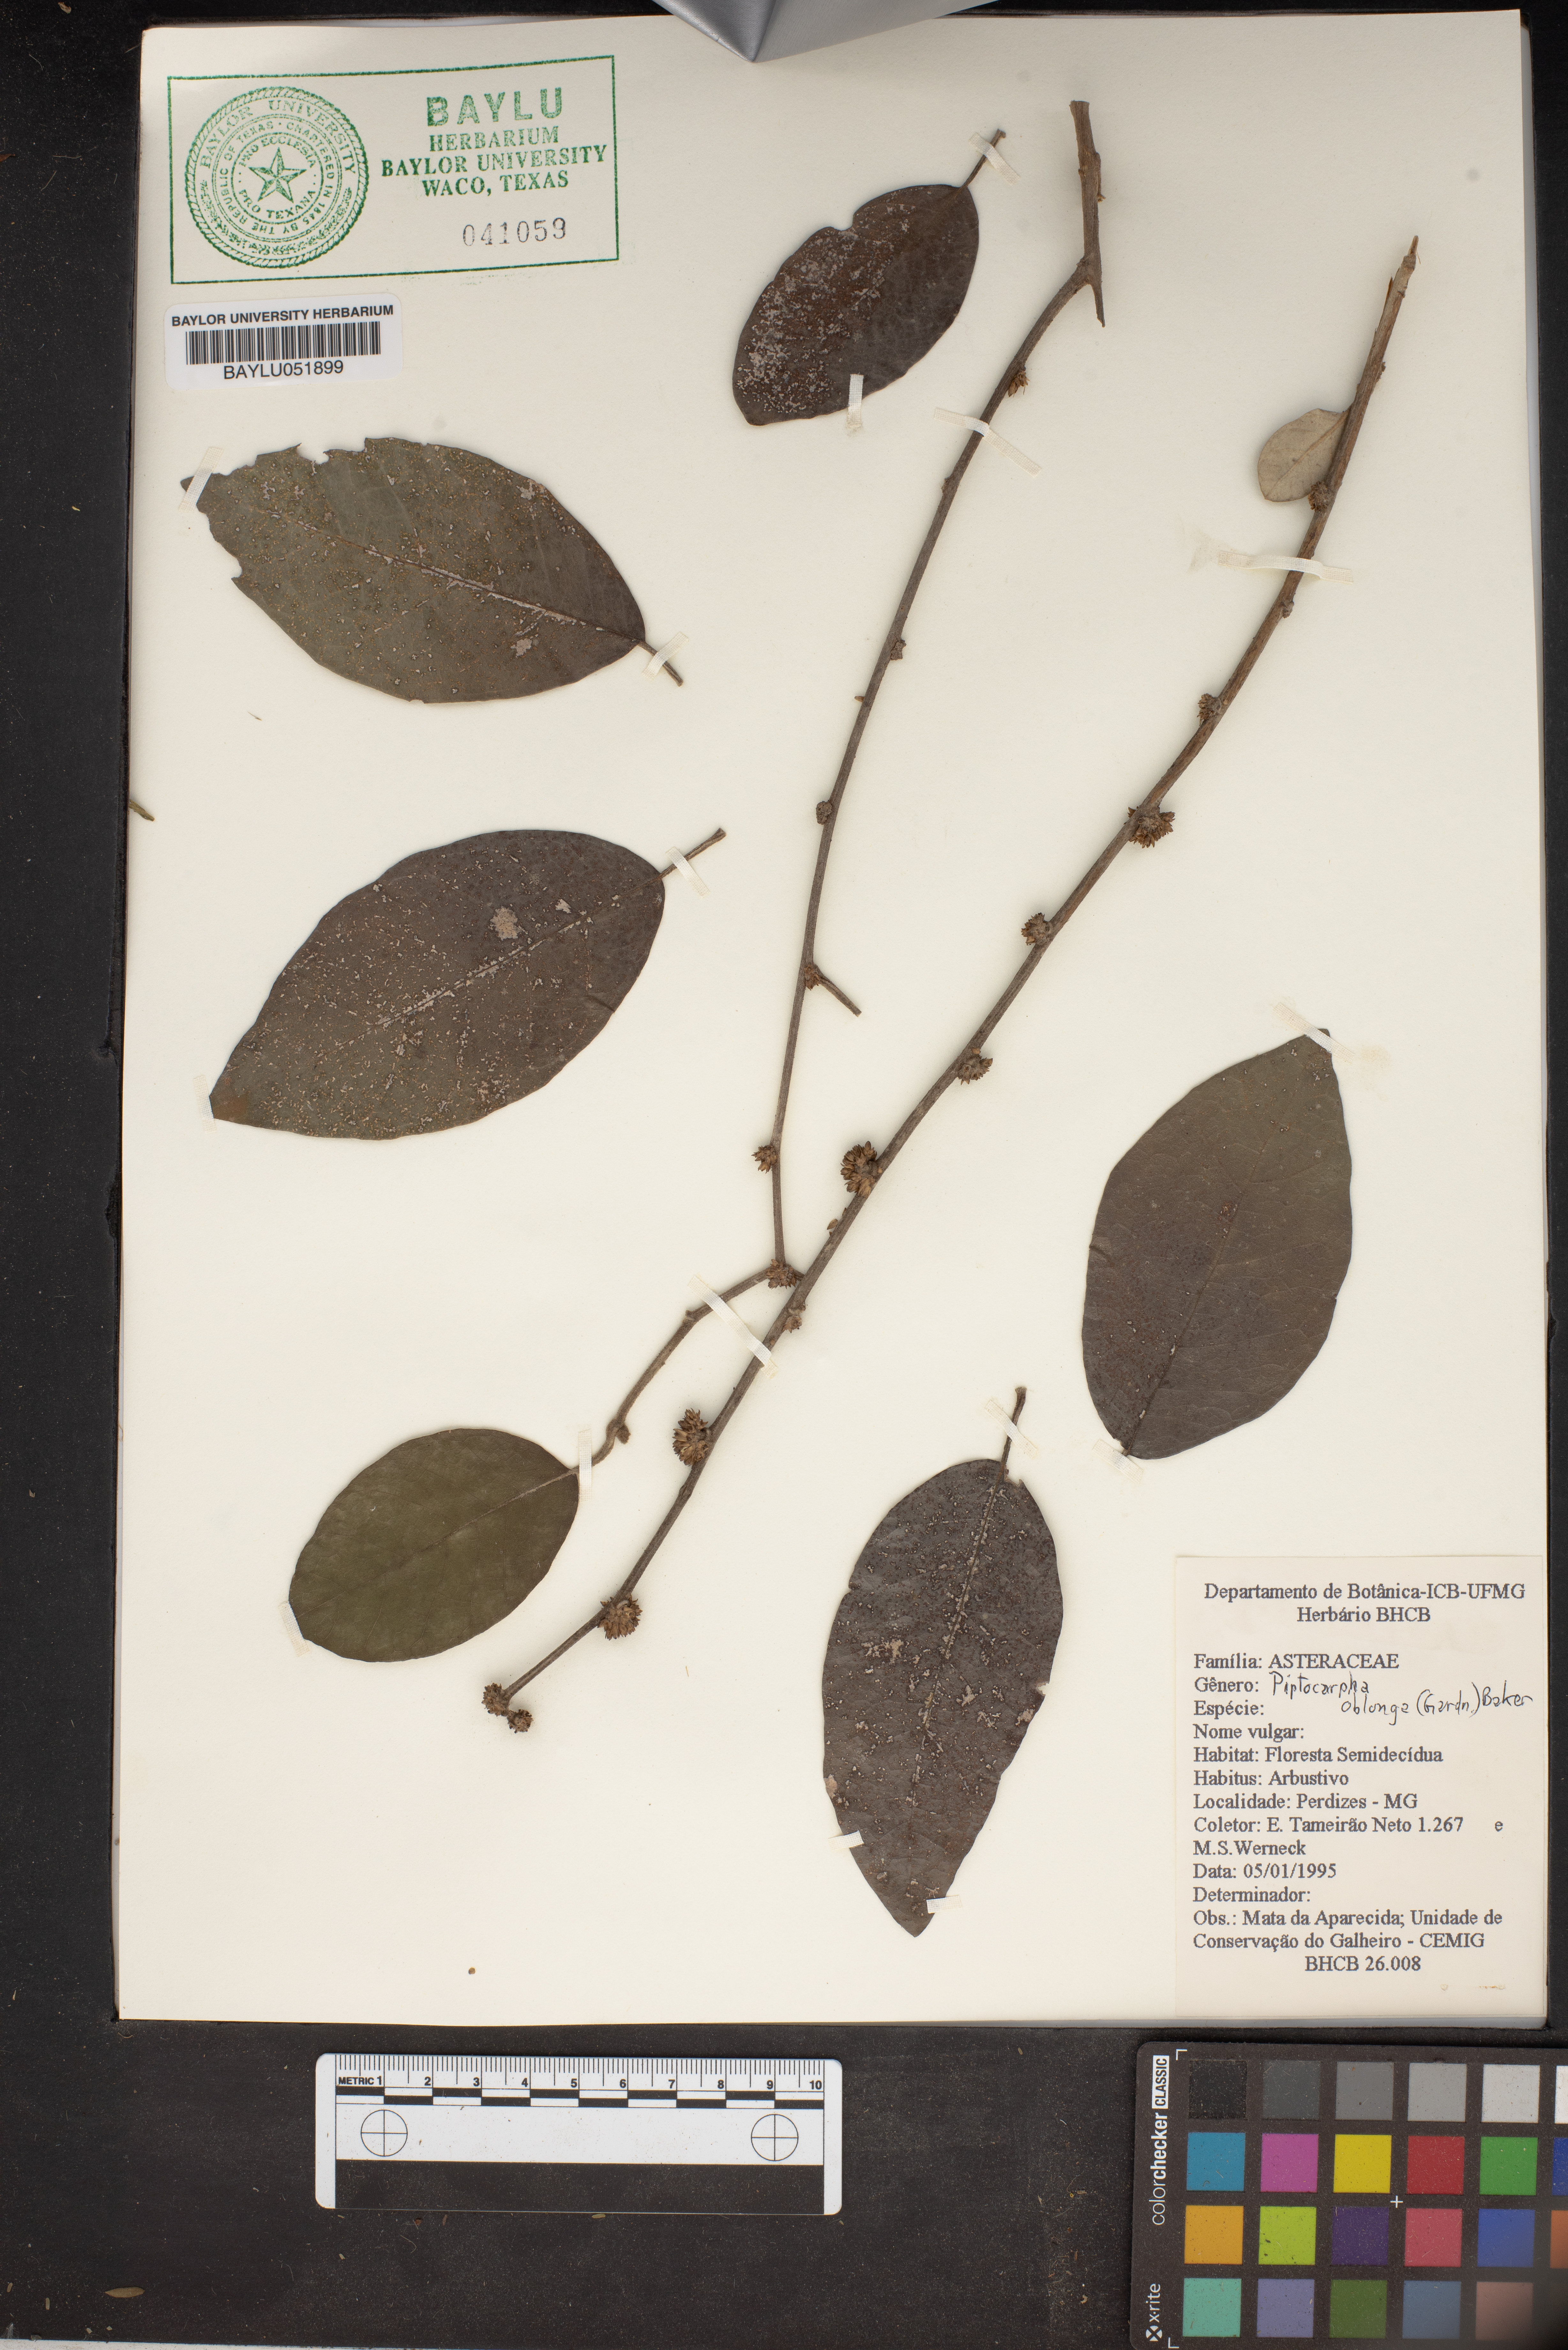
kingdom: Plantae
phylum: Tracheophyta
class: Magnoliopsida
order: Asterales
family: Asteraceae
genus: Piptocarpha
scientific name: Piptocarpha oblonga
